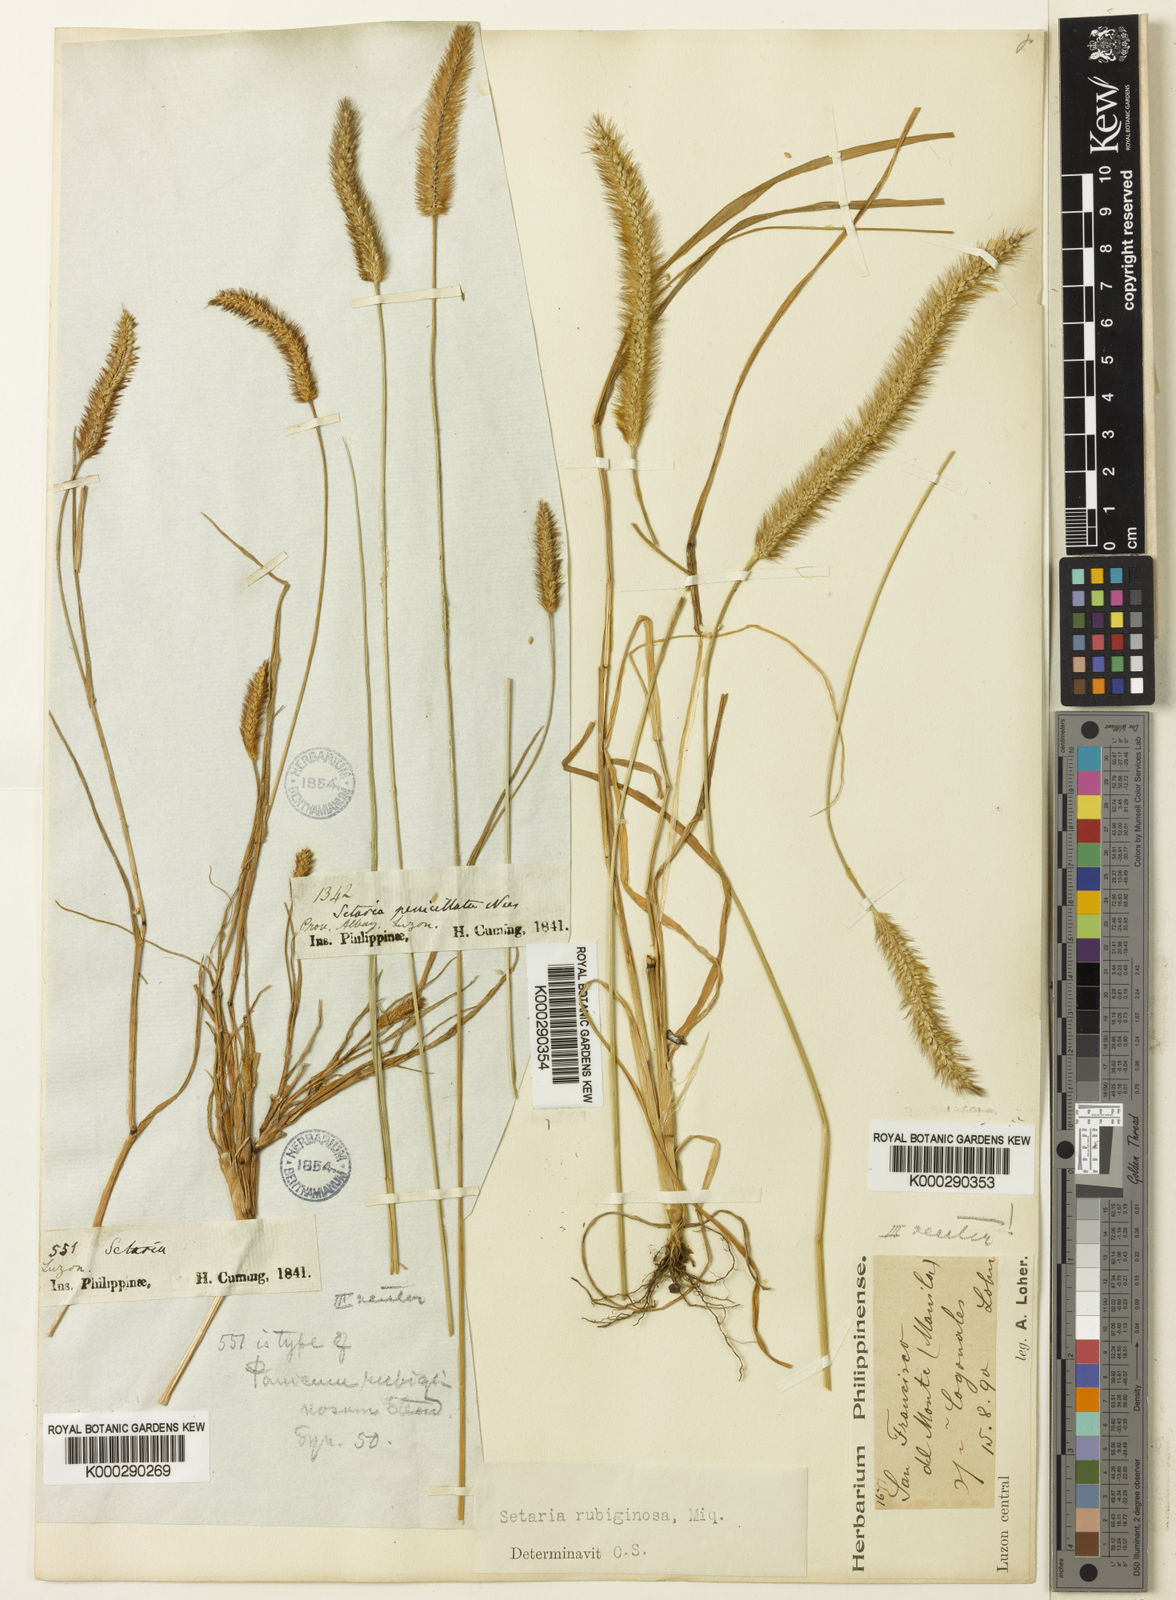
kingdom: Plantae
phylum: Tracheophyta
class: Liliopsida
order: Poales
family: Poaceae
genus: Setaria
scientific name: Setaria pumila
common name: Yellow bristle-grass
